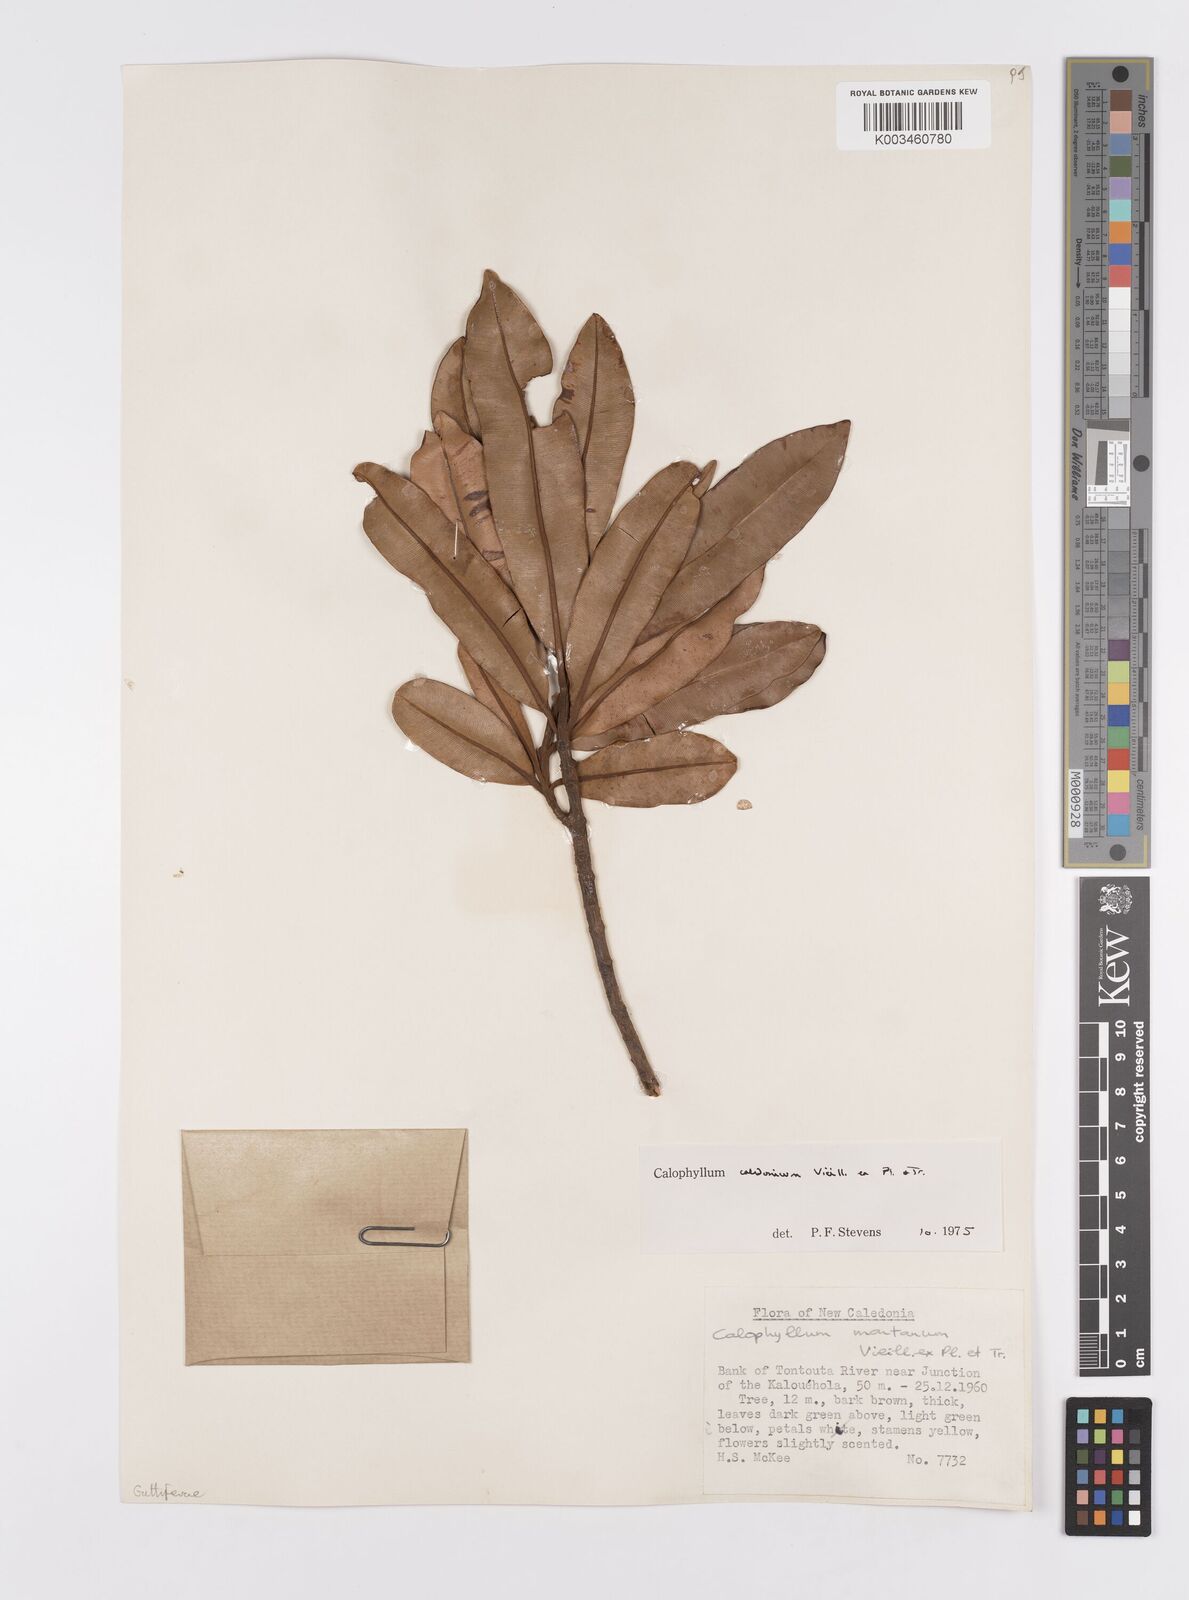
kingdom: Plantae
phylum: Tracheophyta
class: Magnoliopsida
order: Malpighiales
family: Calophyllaceae
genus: Calophyllum
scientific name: Calophyllum caledonicum
